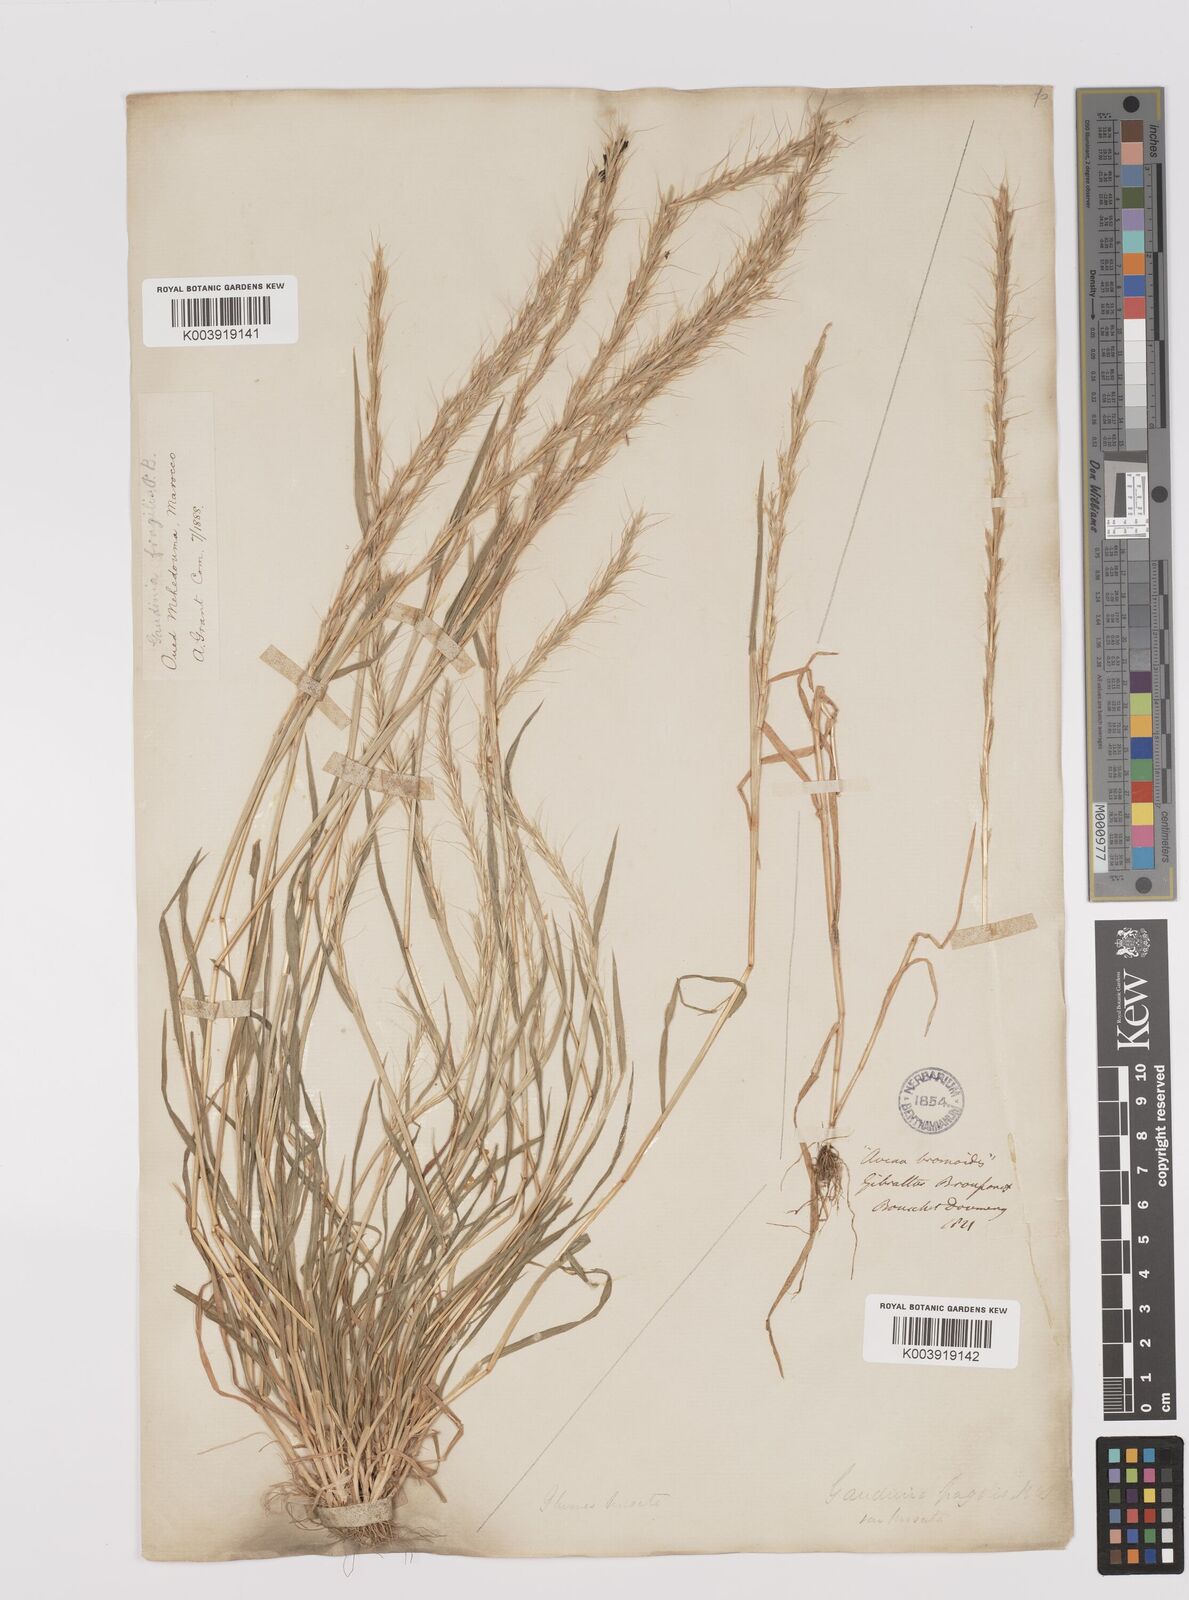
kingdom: Plantae
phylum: Tracheophyta
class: Liliopsida
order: Poales
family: Poaceae
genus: Gaudinia
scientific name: Gaudinia fragilis
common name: French oat-grass
